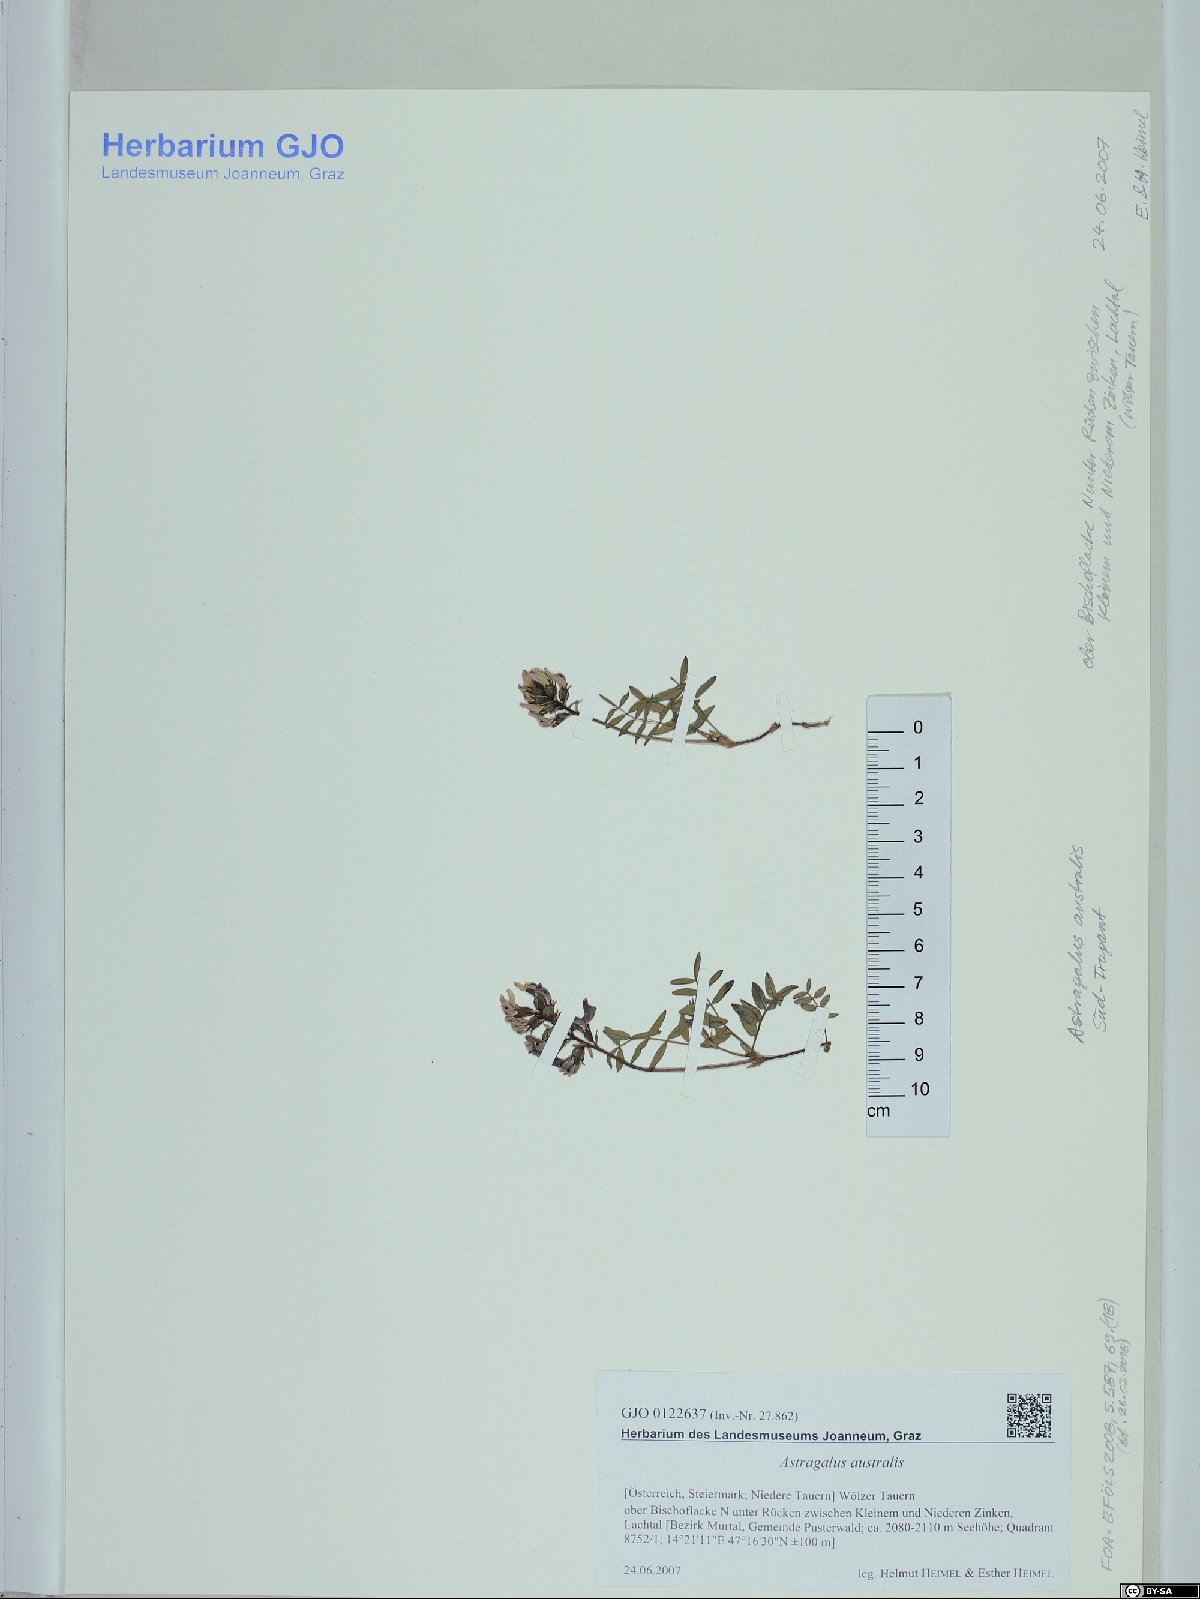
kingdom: Plantae
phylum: Tracheophyta
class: Magnoliopsida
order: Fabales
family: Fabaceae
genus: Astragalus
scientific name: Astragalus australis
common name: Indian milk-vetch
